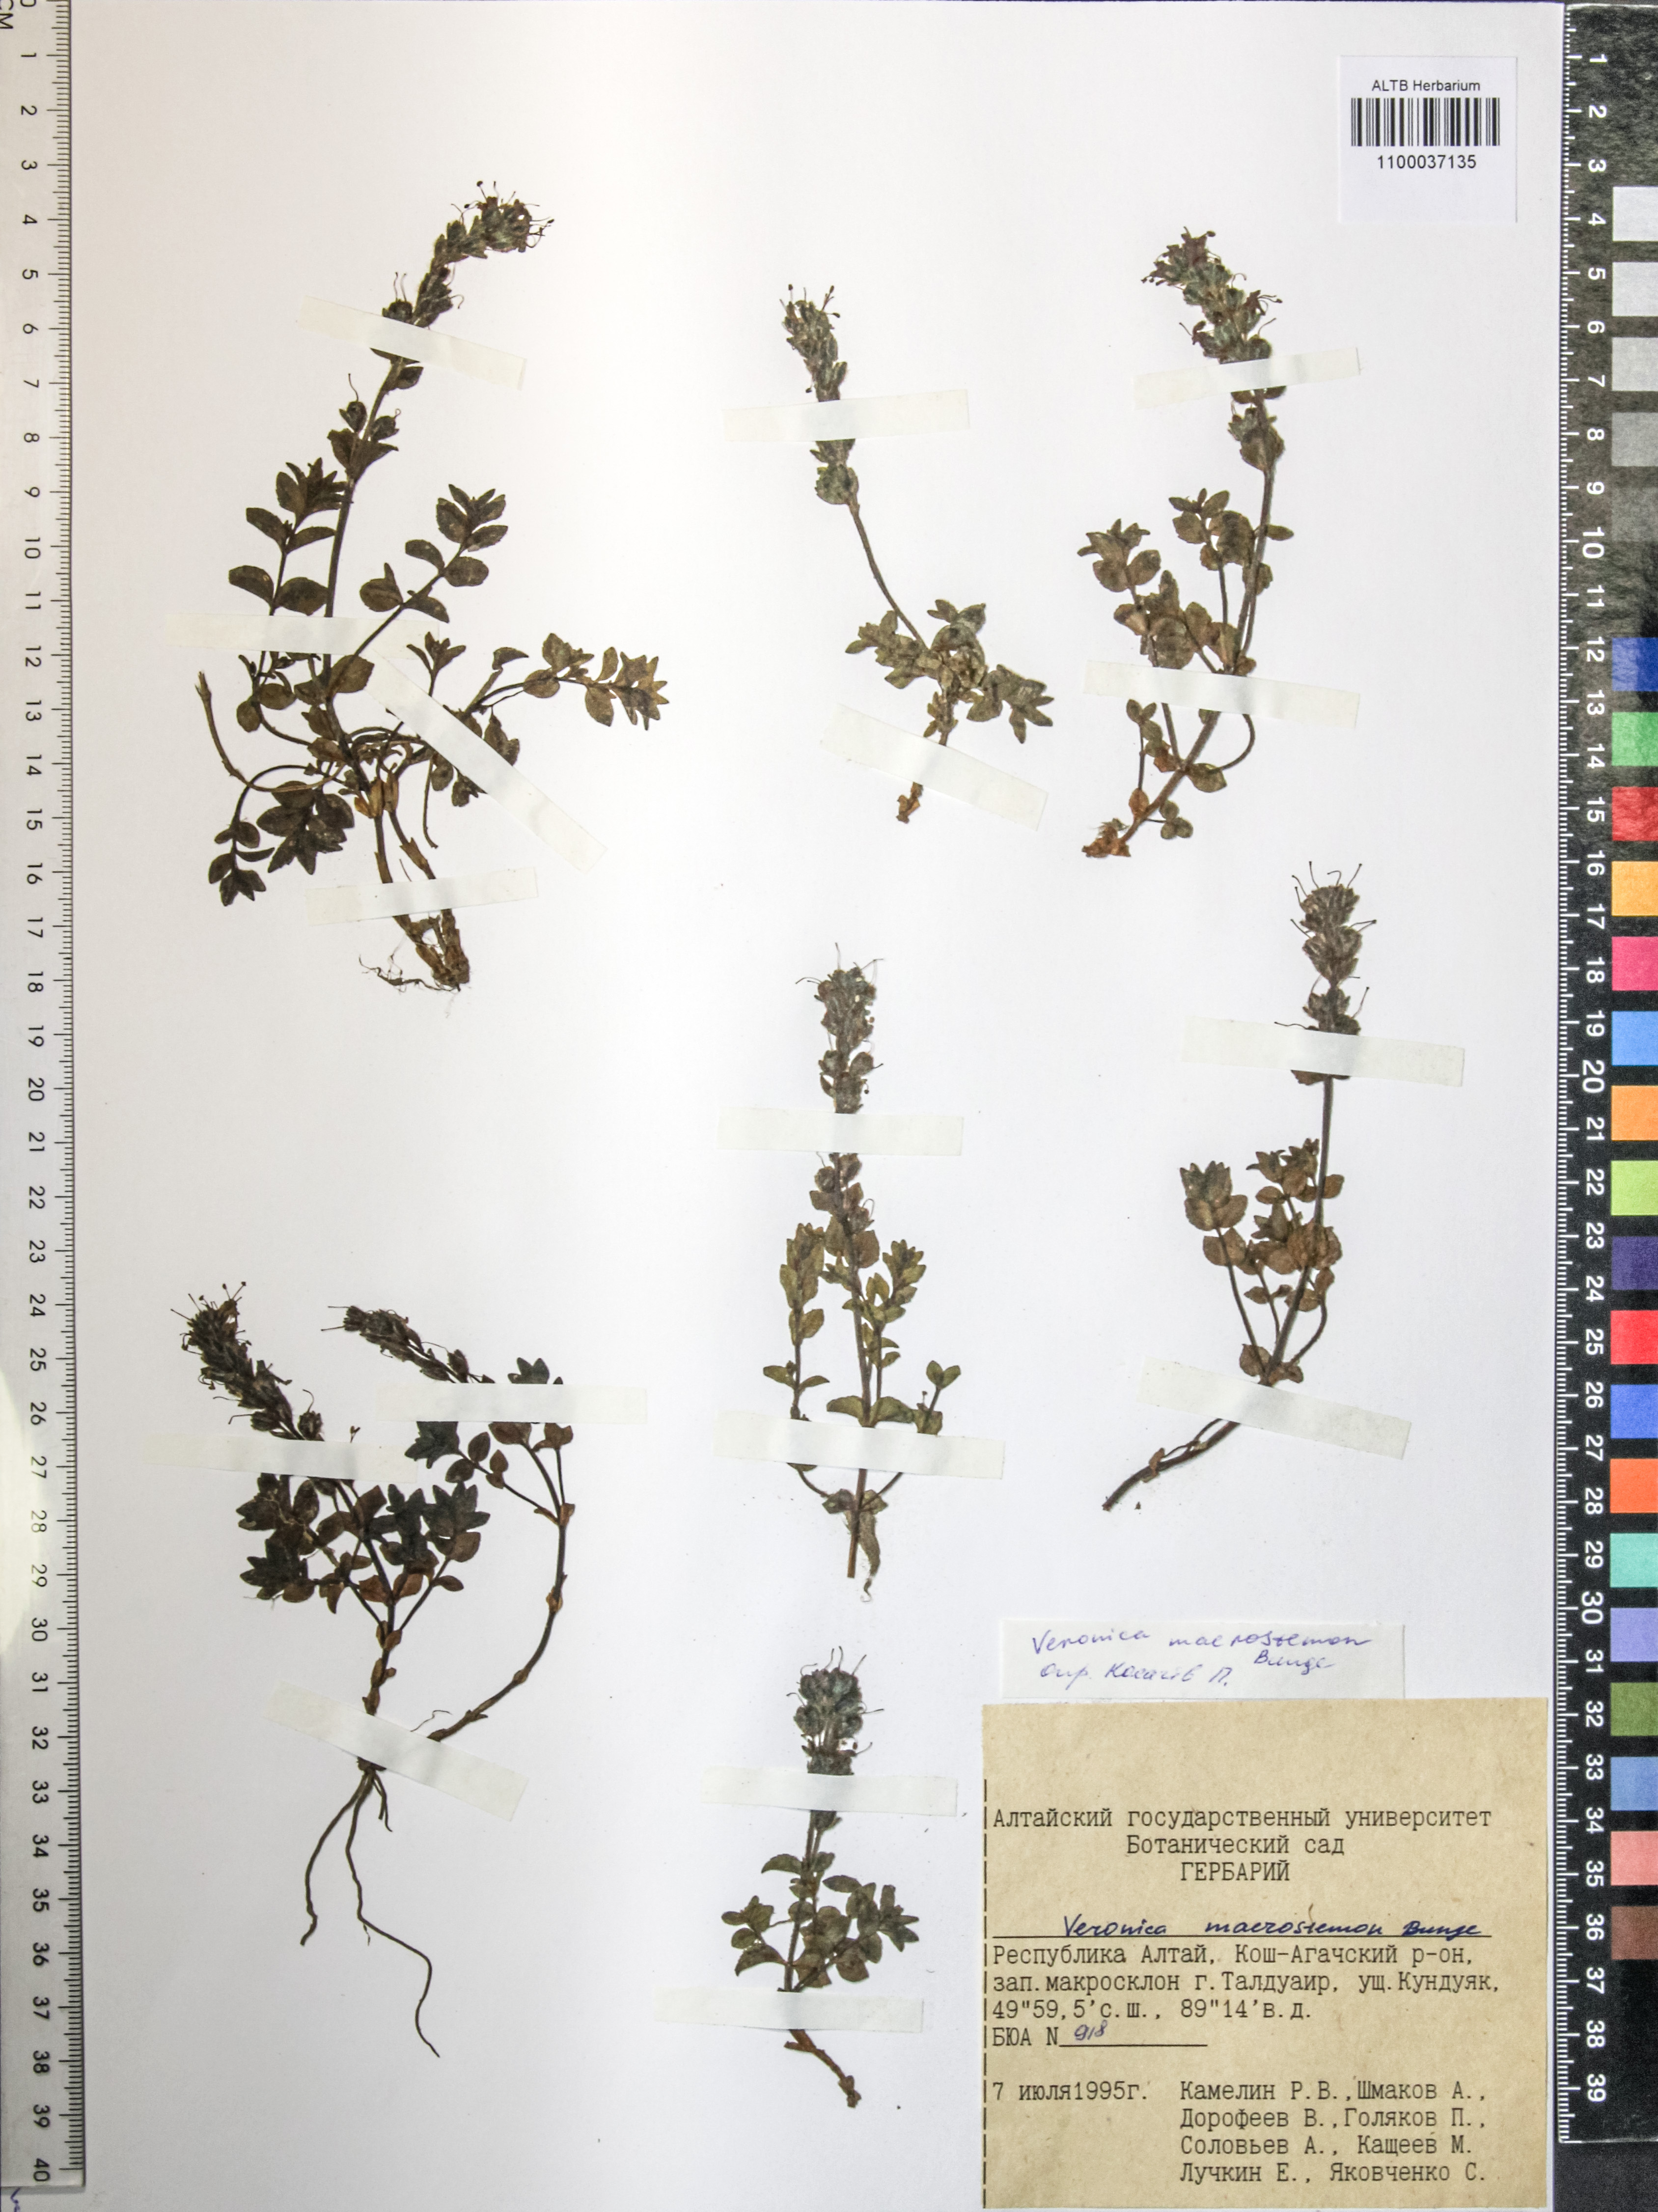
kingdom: Plantae
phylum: Tracheophyta
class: Magnoliopsida
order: Lamiales
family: Plantaginaceae
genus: Veronica
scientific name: Veronica macrostemon
